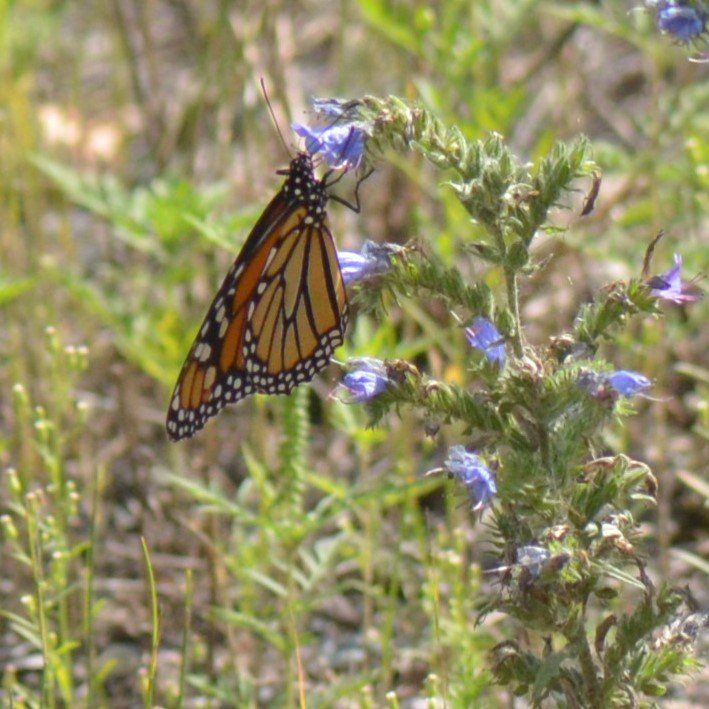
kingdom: Animalia
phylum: Arthropoda
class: Insecta
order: Lepidoptera
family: Nymphalidae
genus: Danaus
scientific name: Danaus plexippus
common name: Monarch
